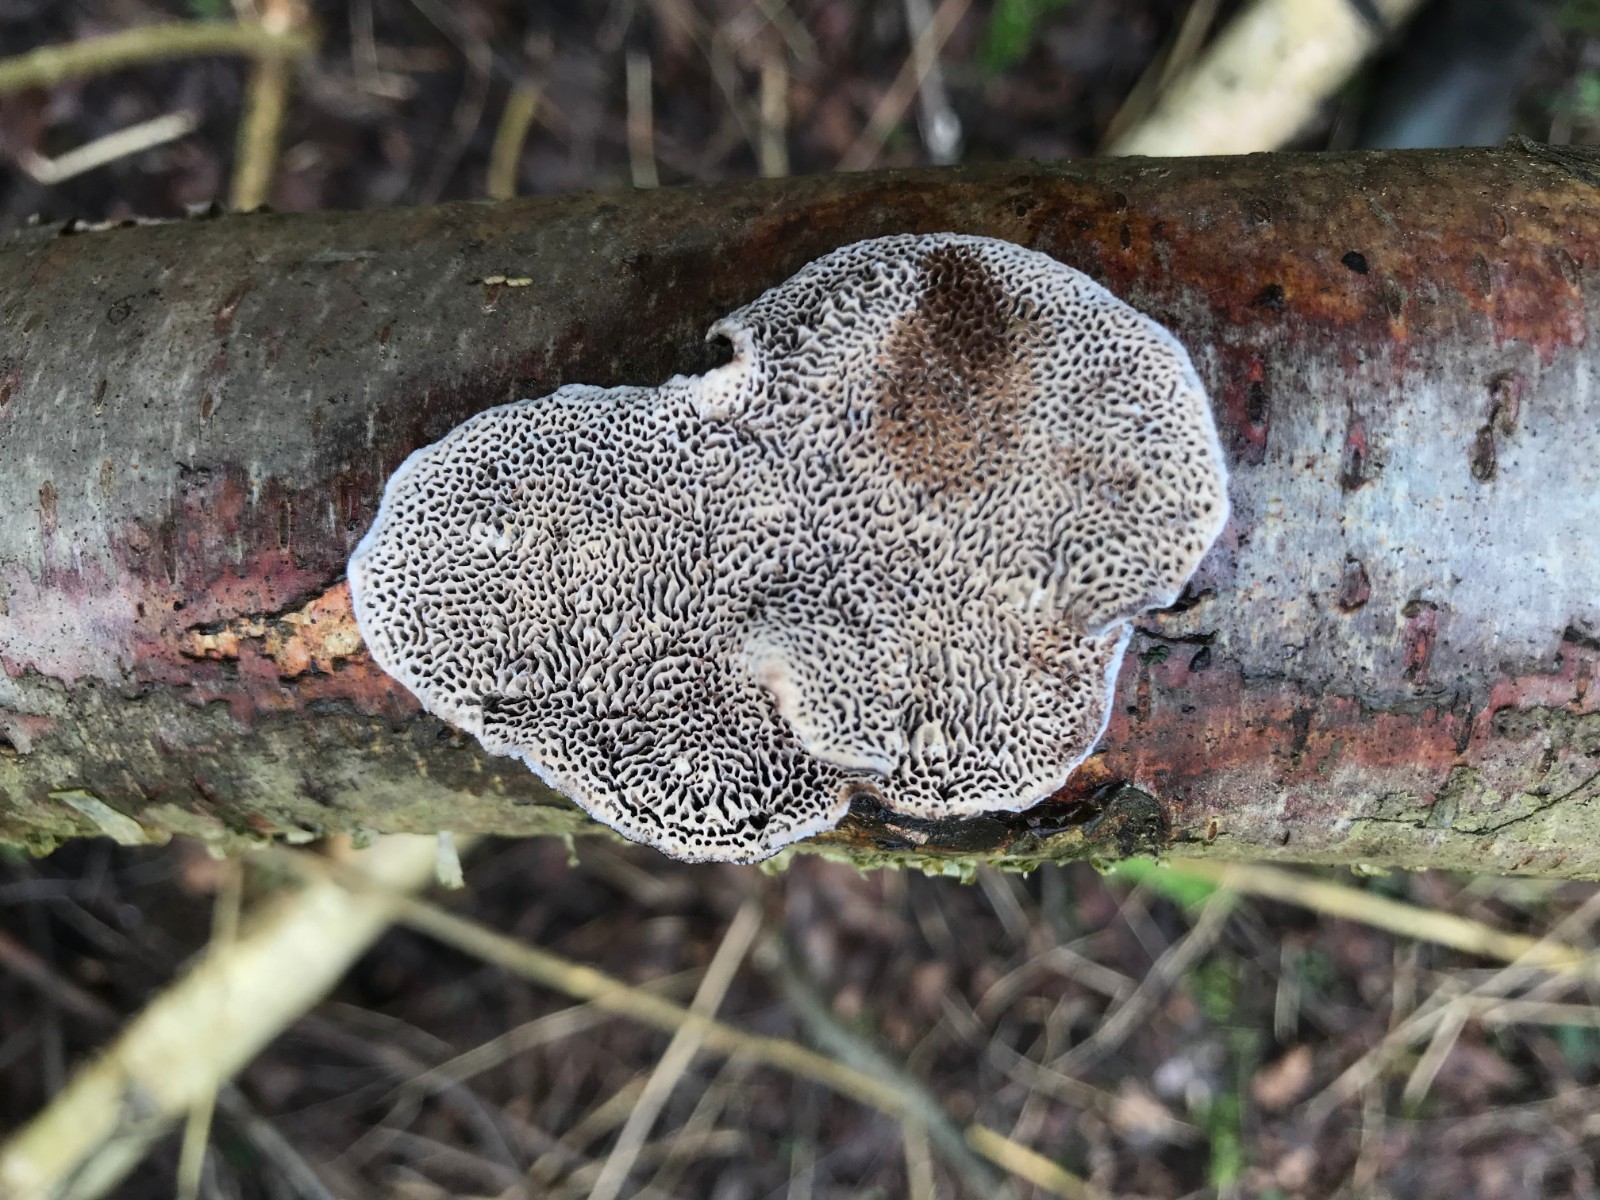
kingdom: Fungi
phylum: Basidiomycota
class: Agaricomycetes
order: Polyporales
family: Polyporaceae
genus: Daedaleopsis
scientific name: Daedaleopsis confragosa
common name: rødmende læderporesvamp
